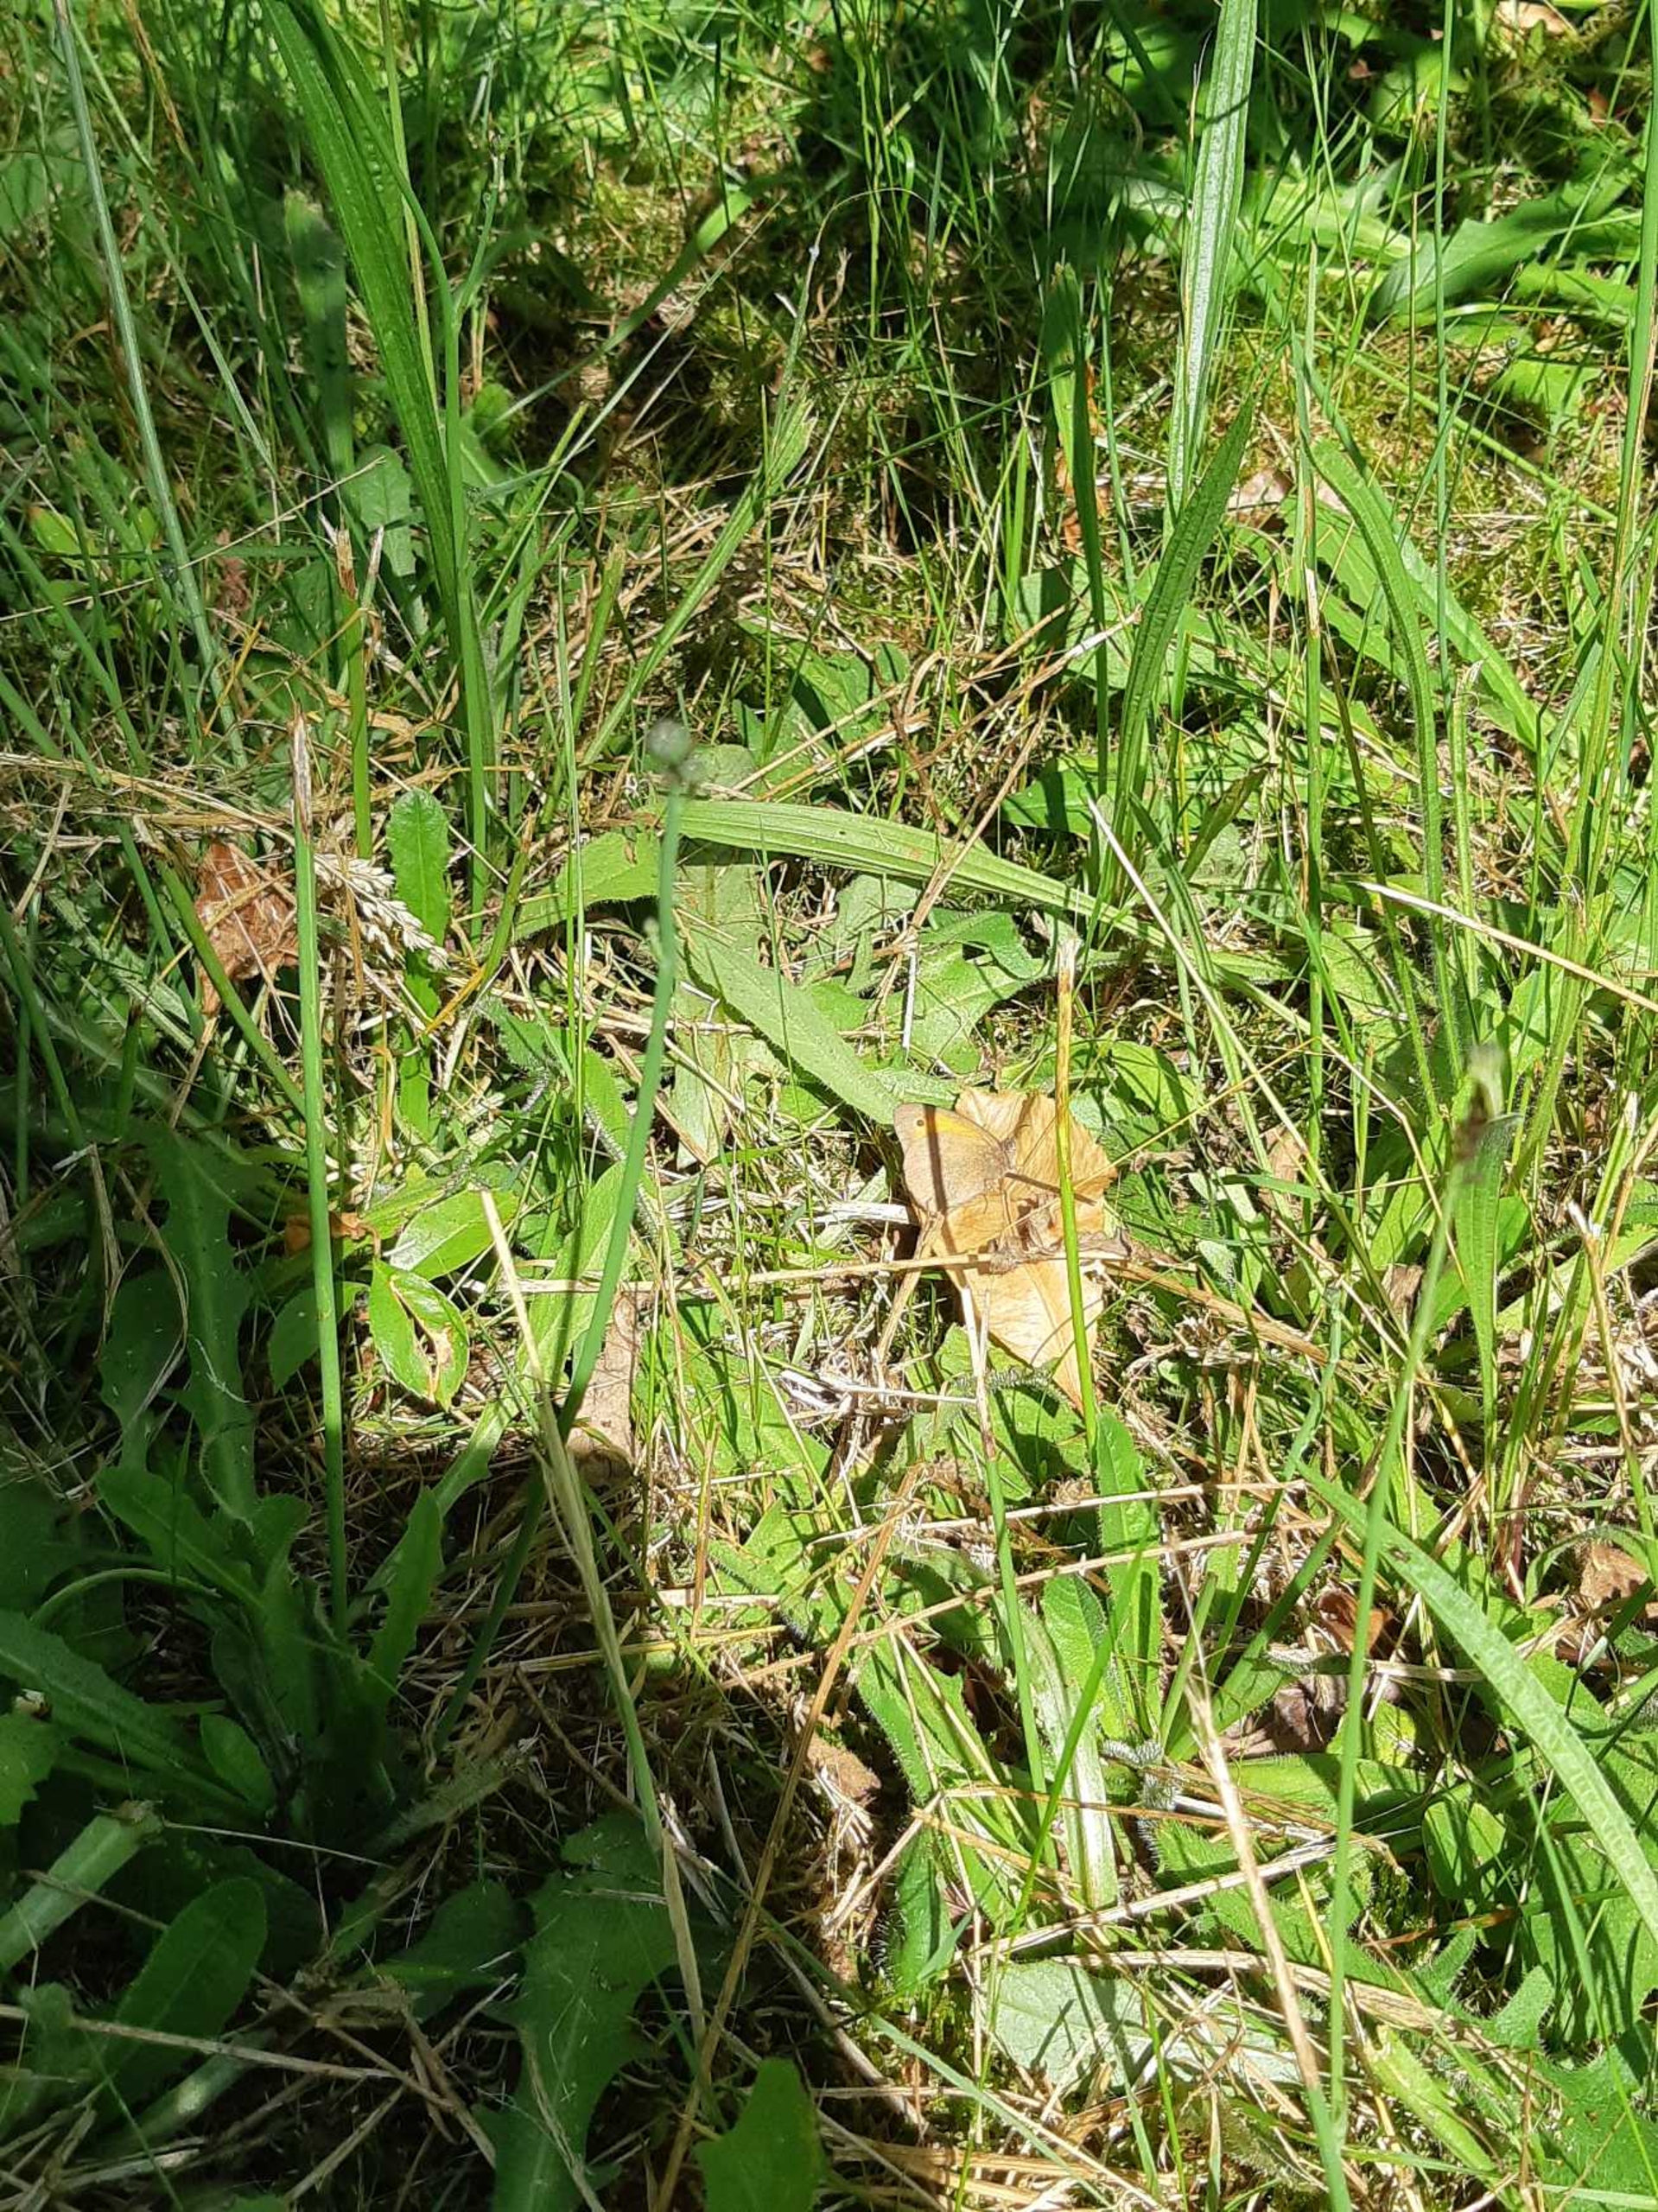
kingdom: Animalia
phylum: Arthropoda
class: Insecta
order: Lepidoptera
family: Nymphalidae
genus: Maniola
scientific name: Maniola jurtina
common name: Græsrandøje
